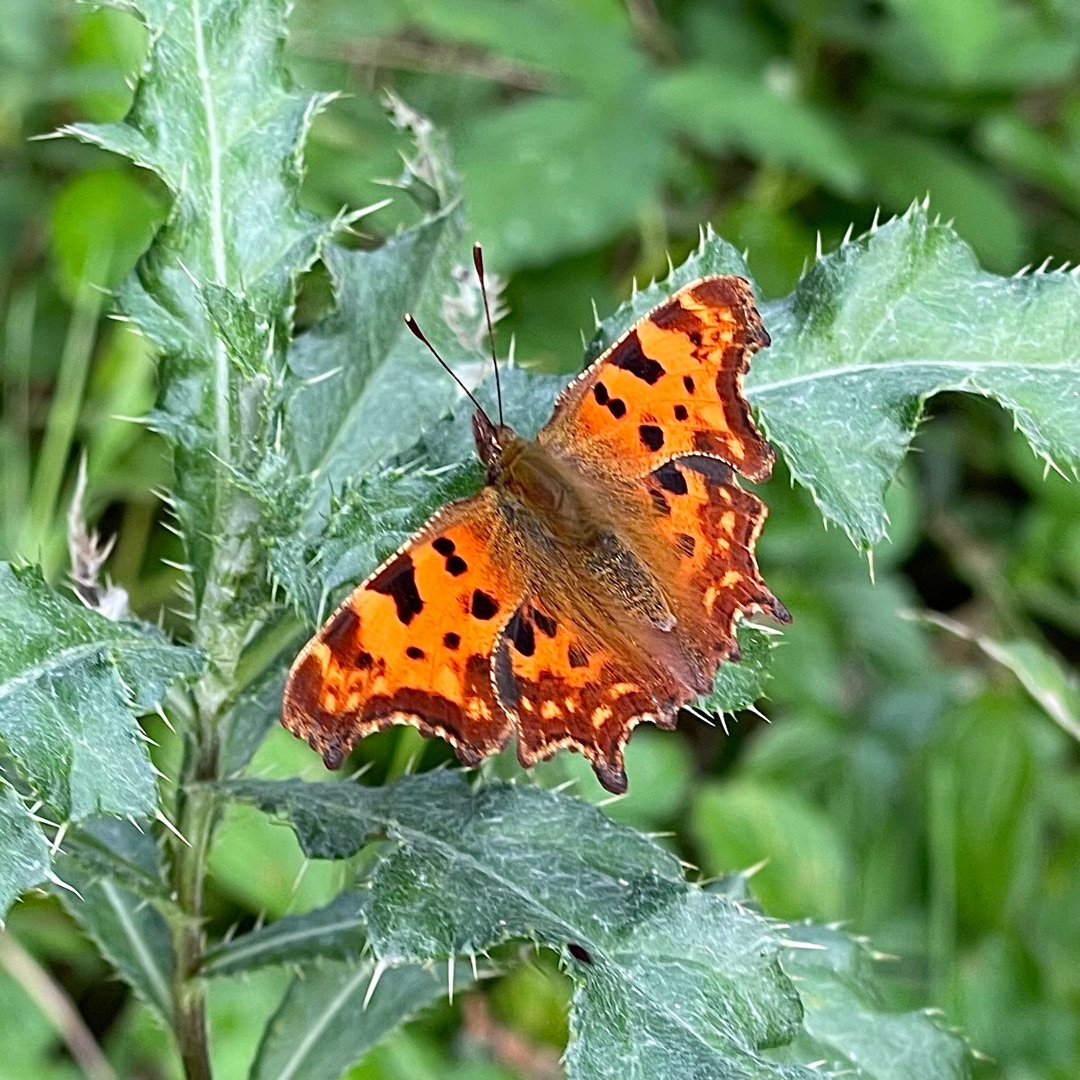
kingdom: Animalia
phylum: Arthropoda
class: Insecta
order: Lepidoptera
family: Nymphalidae
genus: Polygonia
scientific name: Polygonia c-album
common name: Det hvide C
